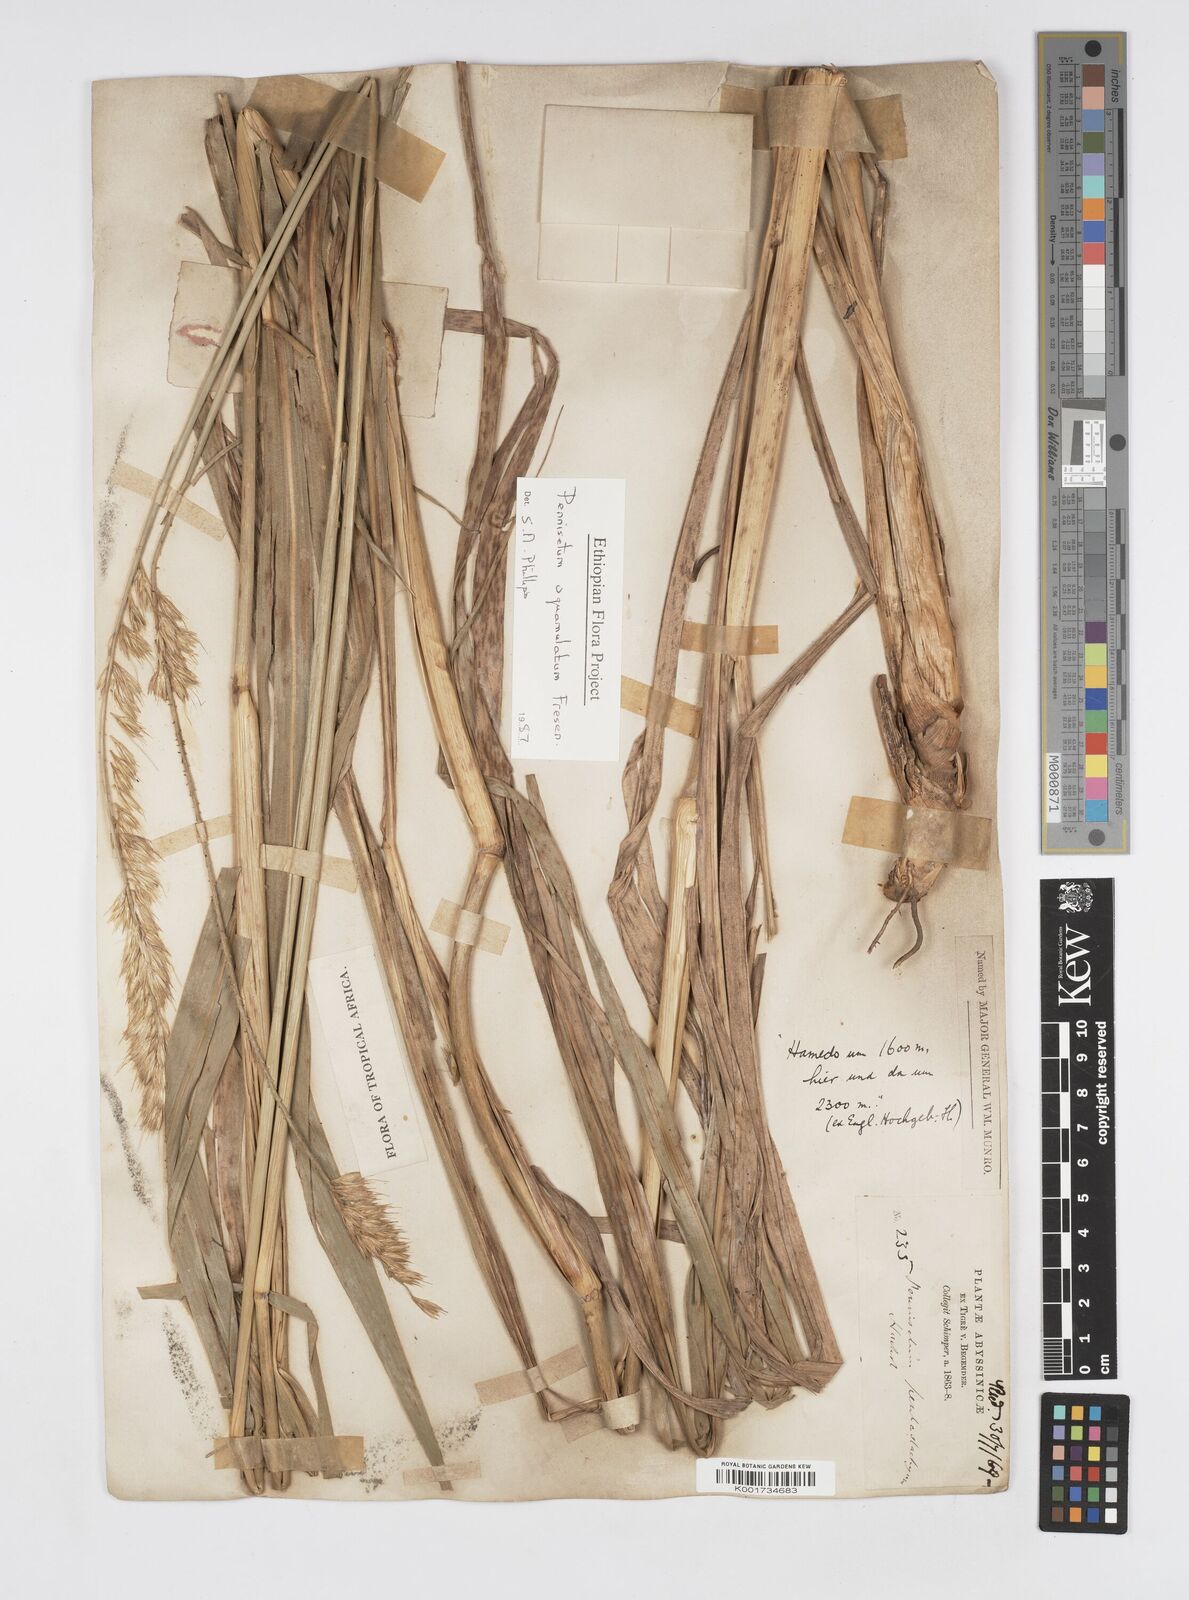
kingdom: Plantae
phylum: Tracheophyta
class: Liliopsida
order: Poales
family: Poaceae
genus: Cenchrus
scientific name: Cenchrus squamulatus
